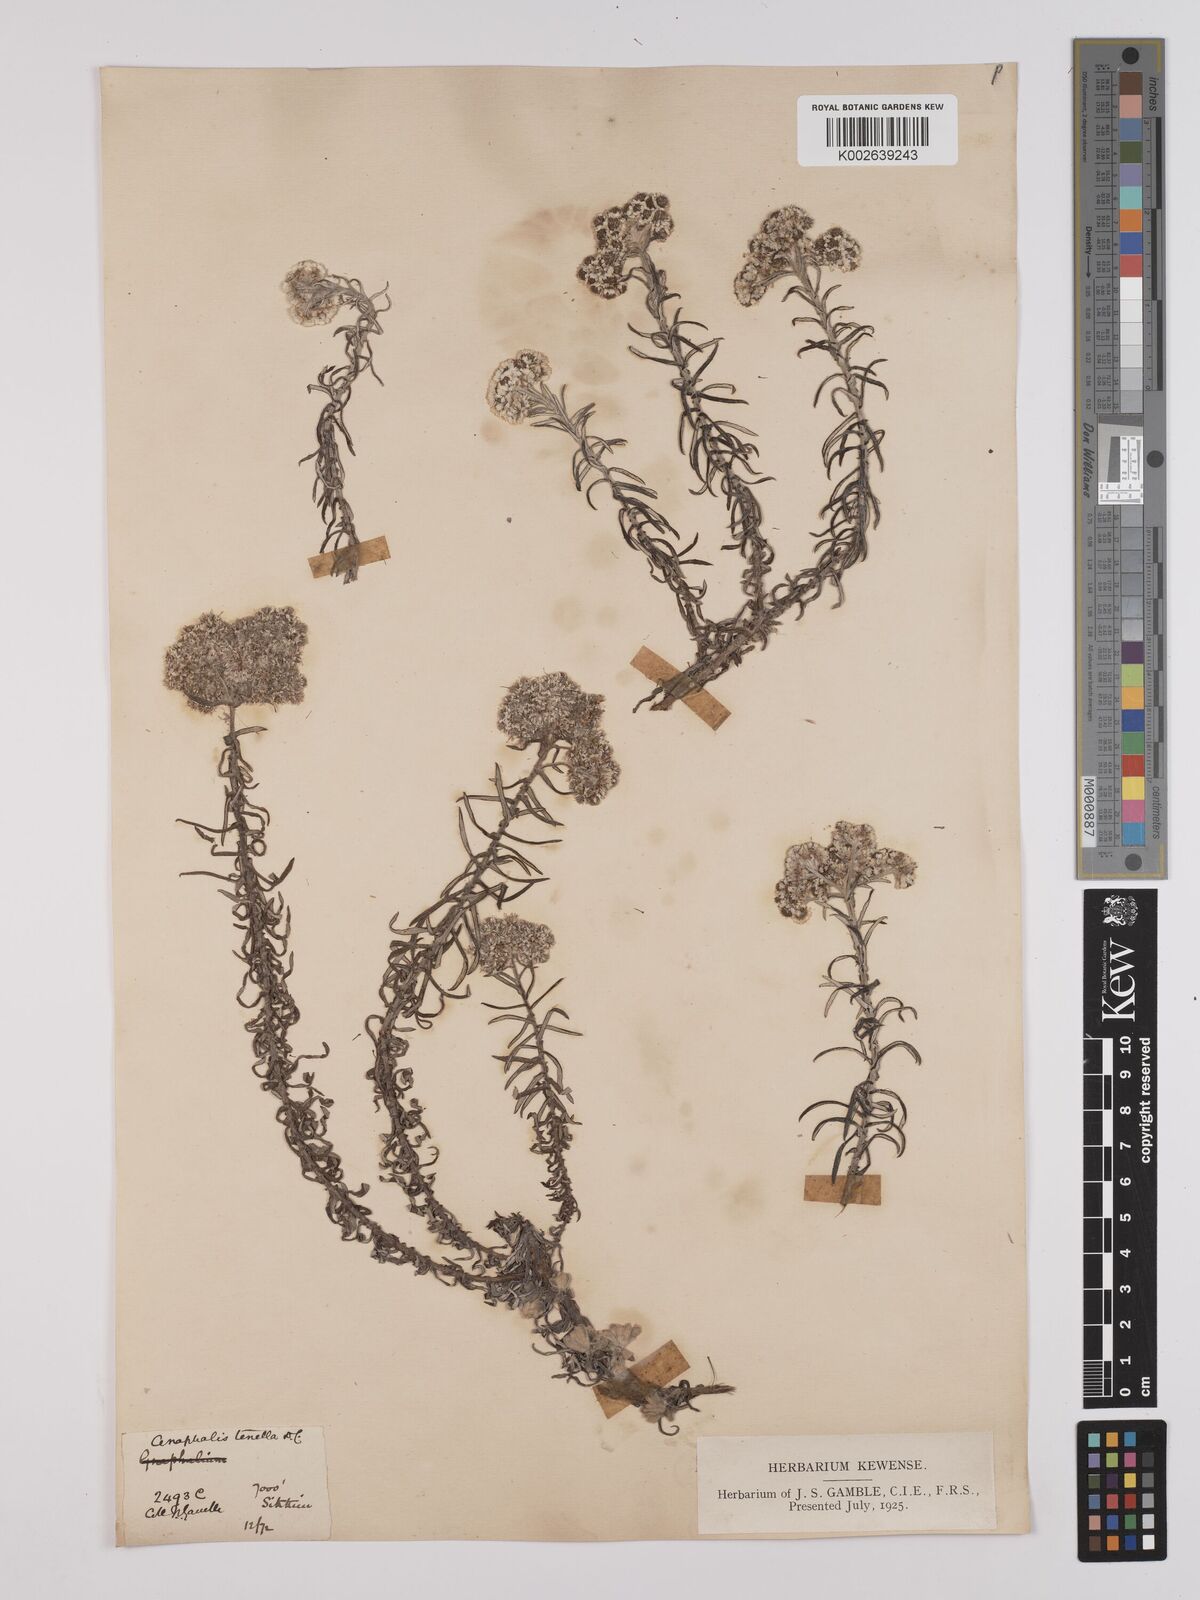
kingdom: Plantae
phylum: Tracheophyta
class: Magnoliopsida
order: Asterales
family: Asteraceae
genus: Anaphalis
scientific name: Anaphalis contorta
